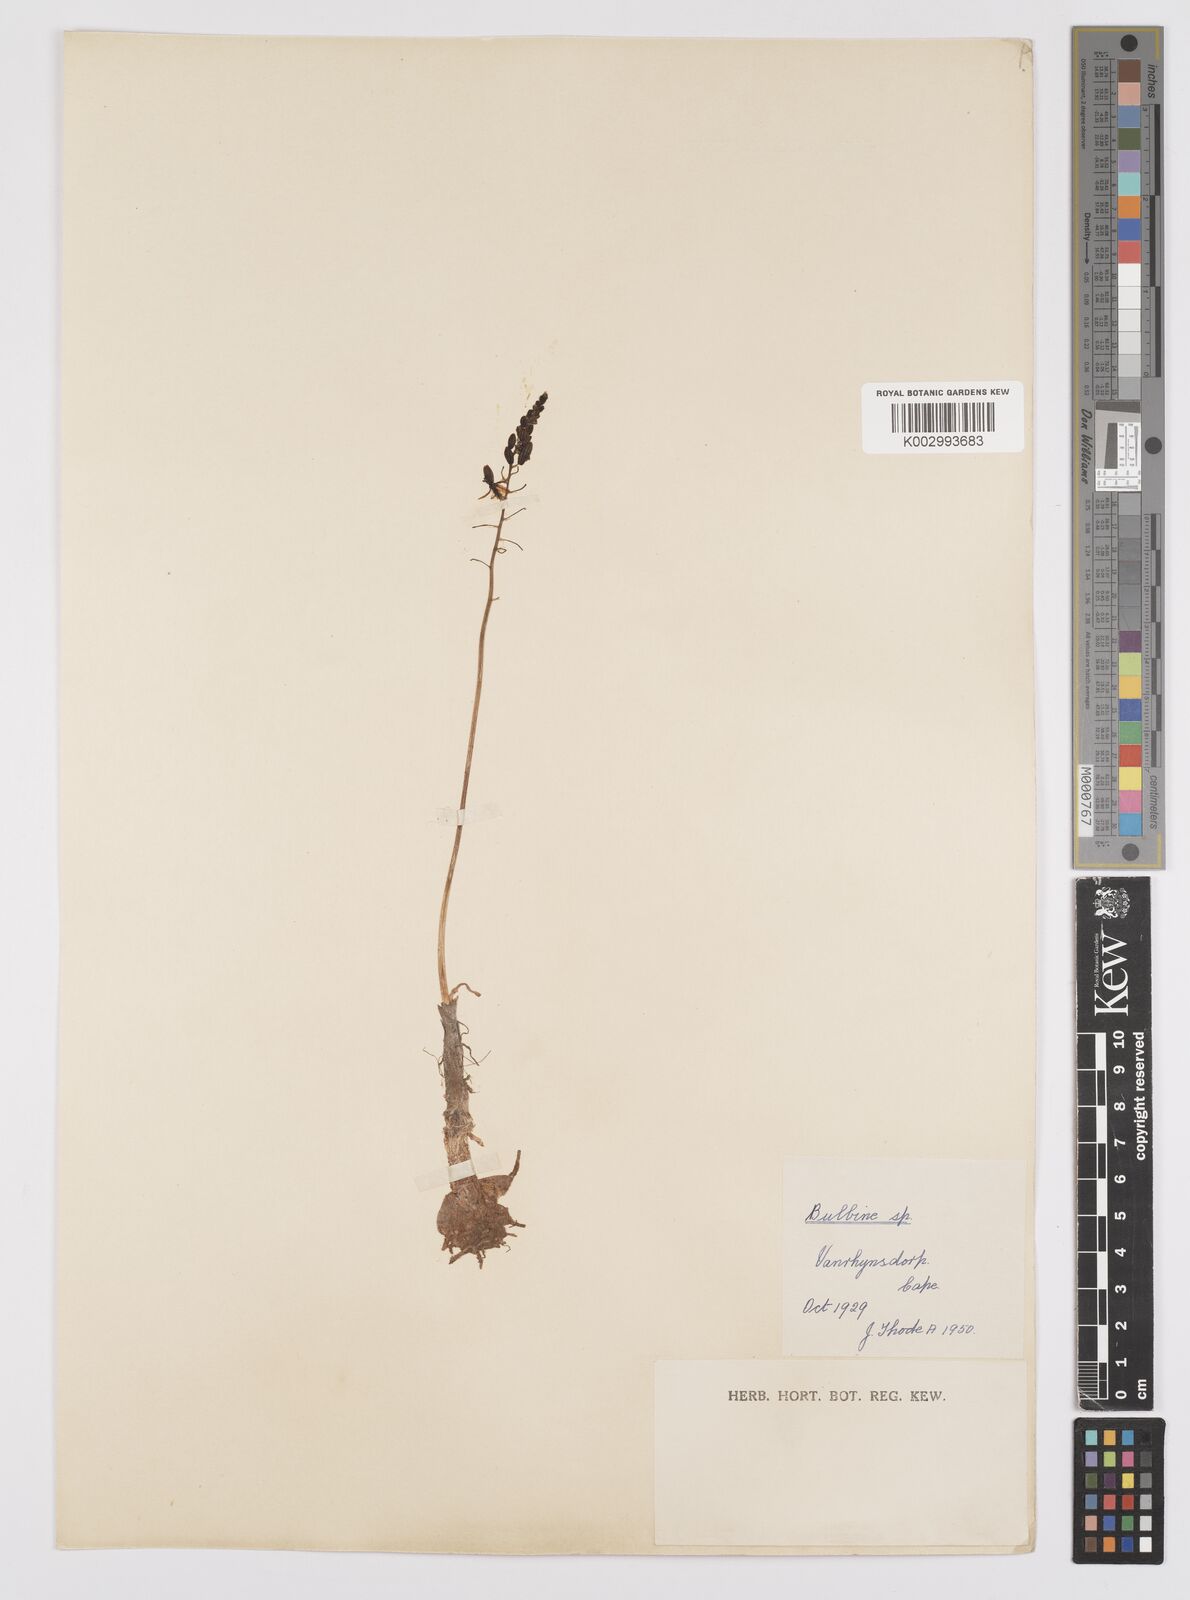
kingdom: Plantae
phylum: Tracheophyta
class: Liliopsida
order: Asparagales
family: Asphodelaceae
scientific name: Asphodelaceae
